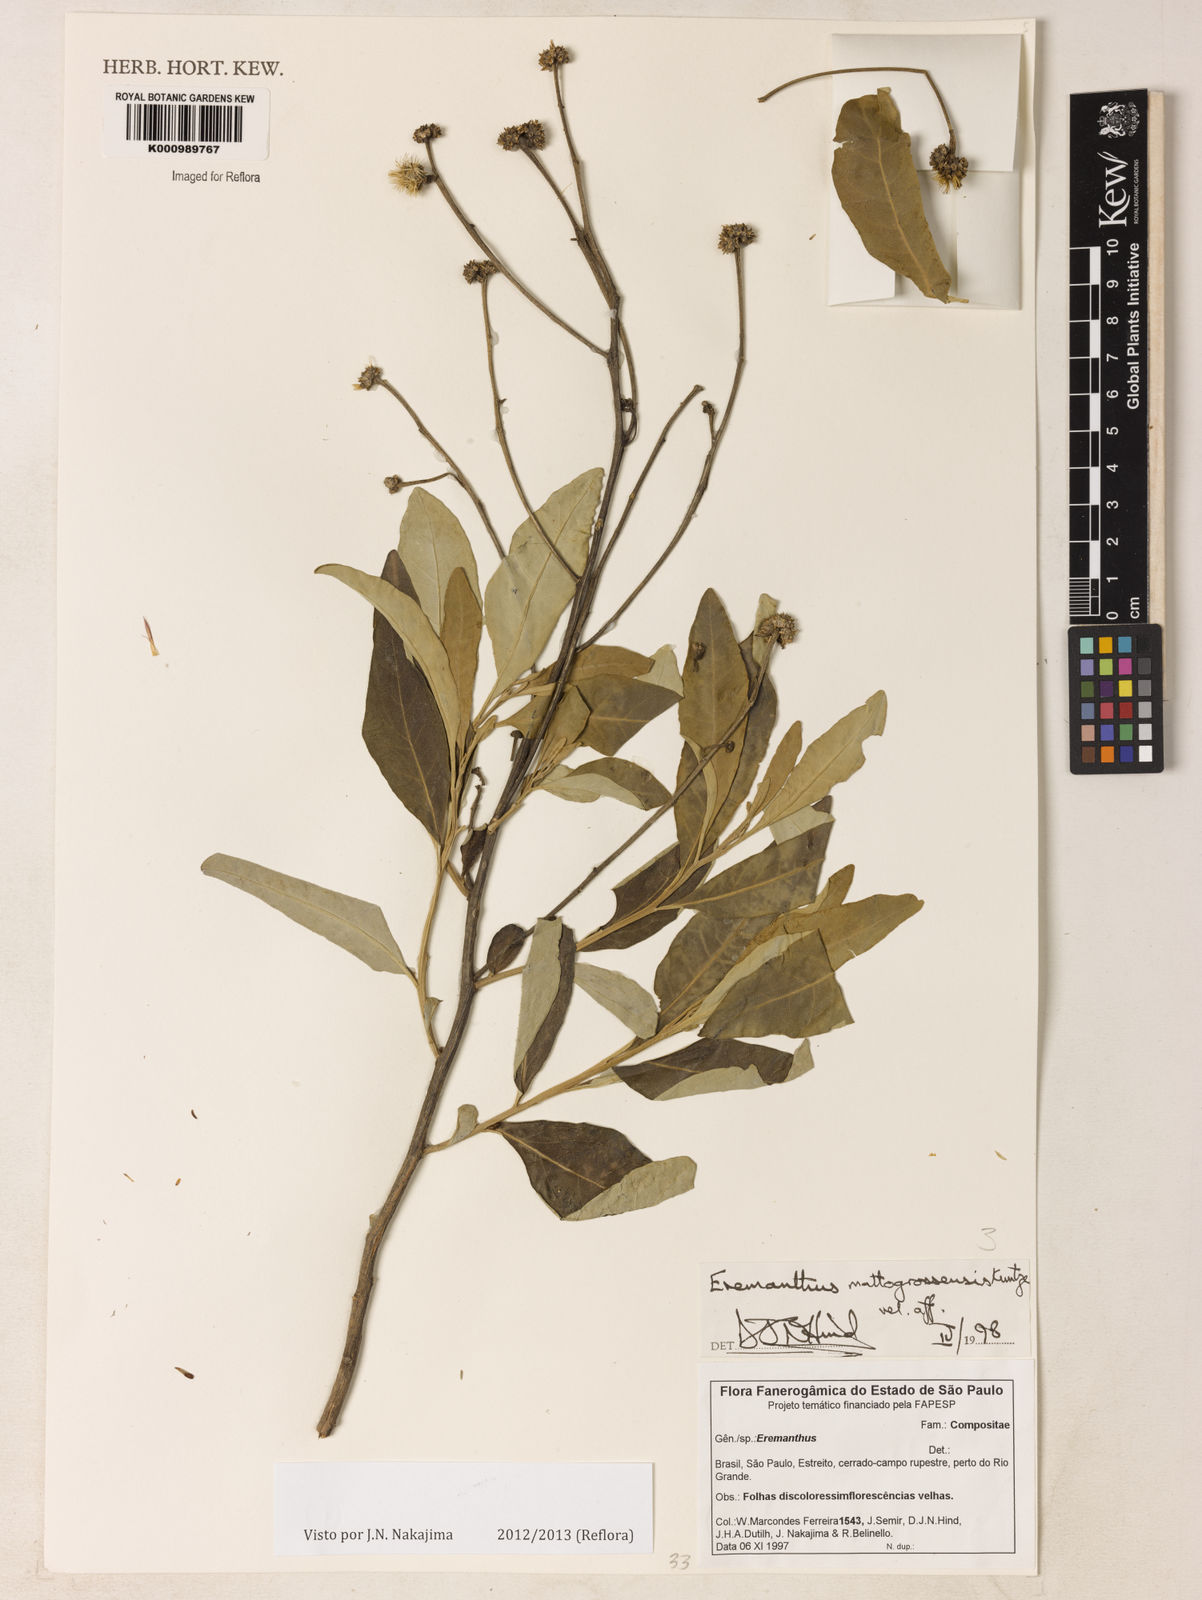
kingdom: Plantae
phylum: Tracheophyta
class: Magnoliopsida
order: Asterales
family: Asteraceae
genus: Eremanthus
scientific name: Eremanthus mattogrossensis
